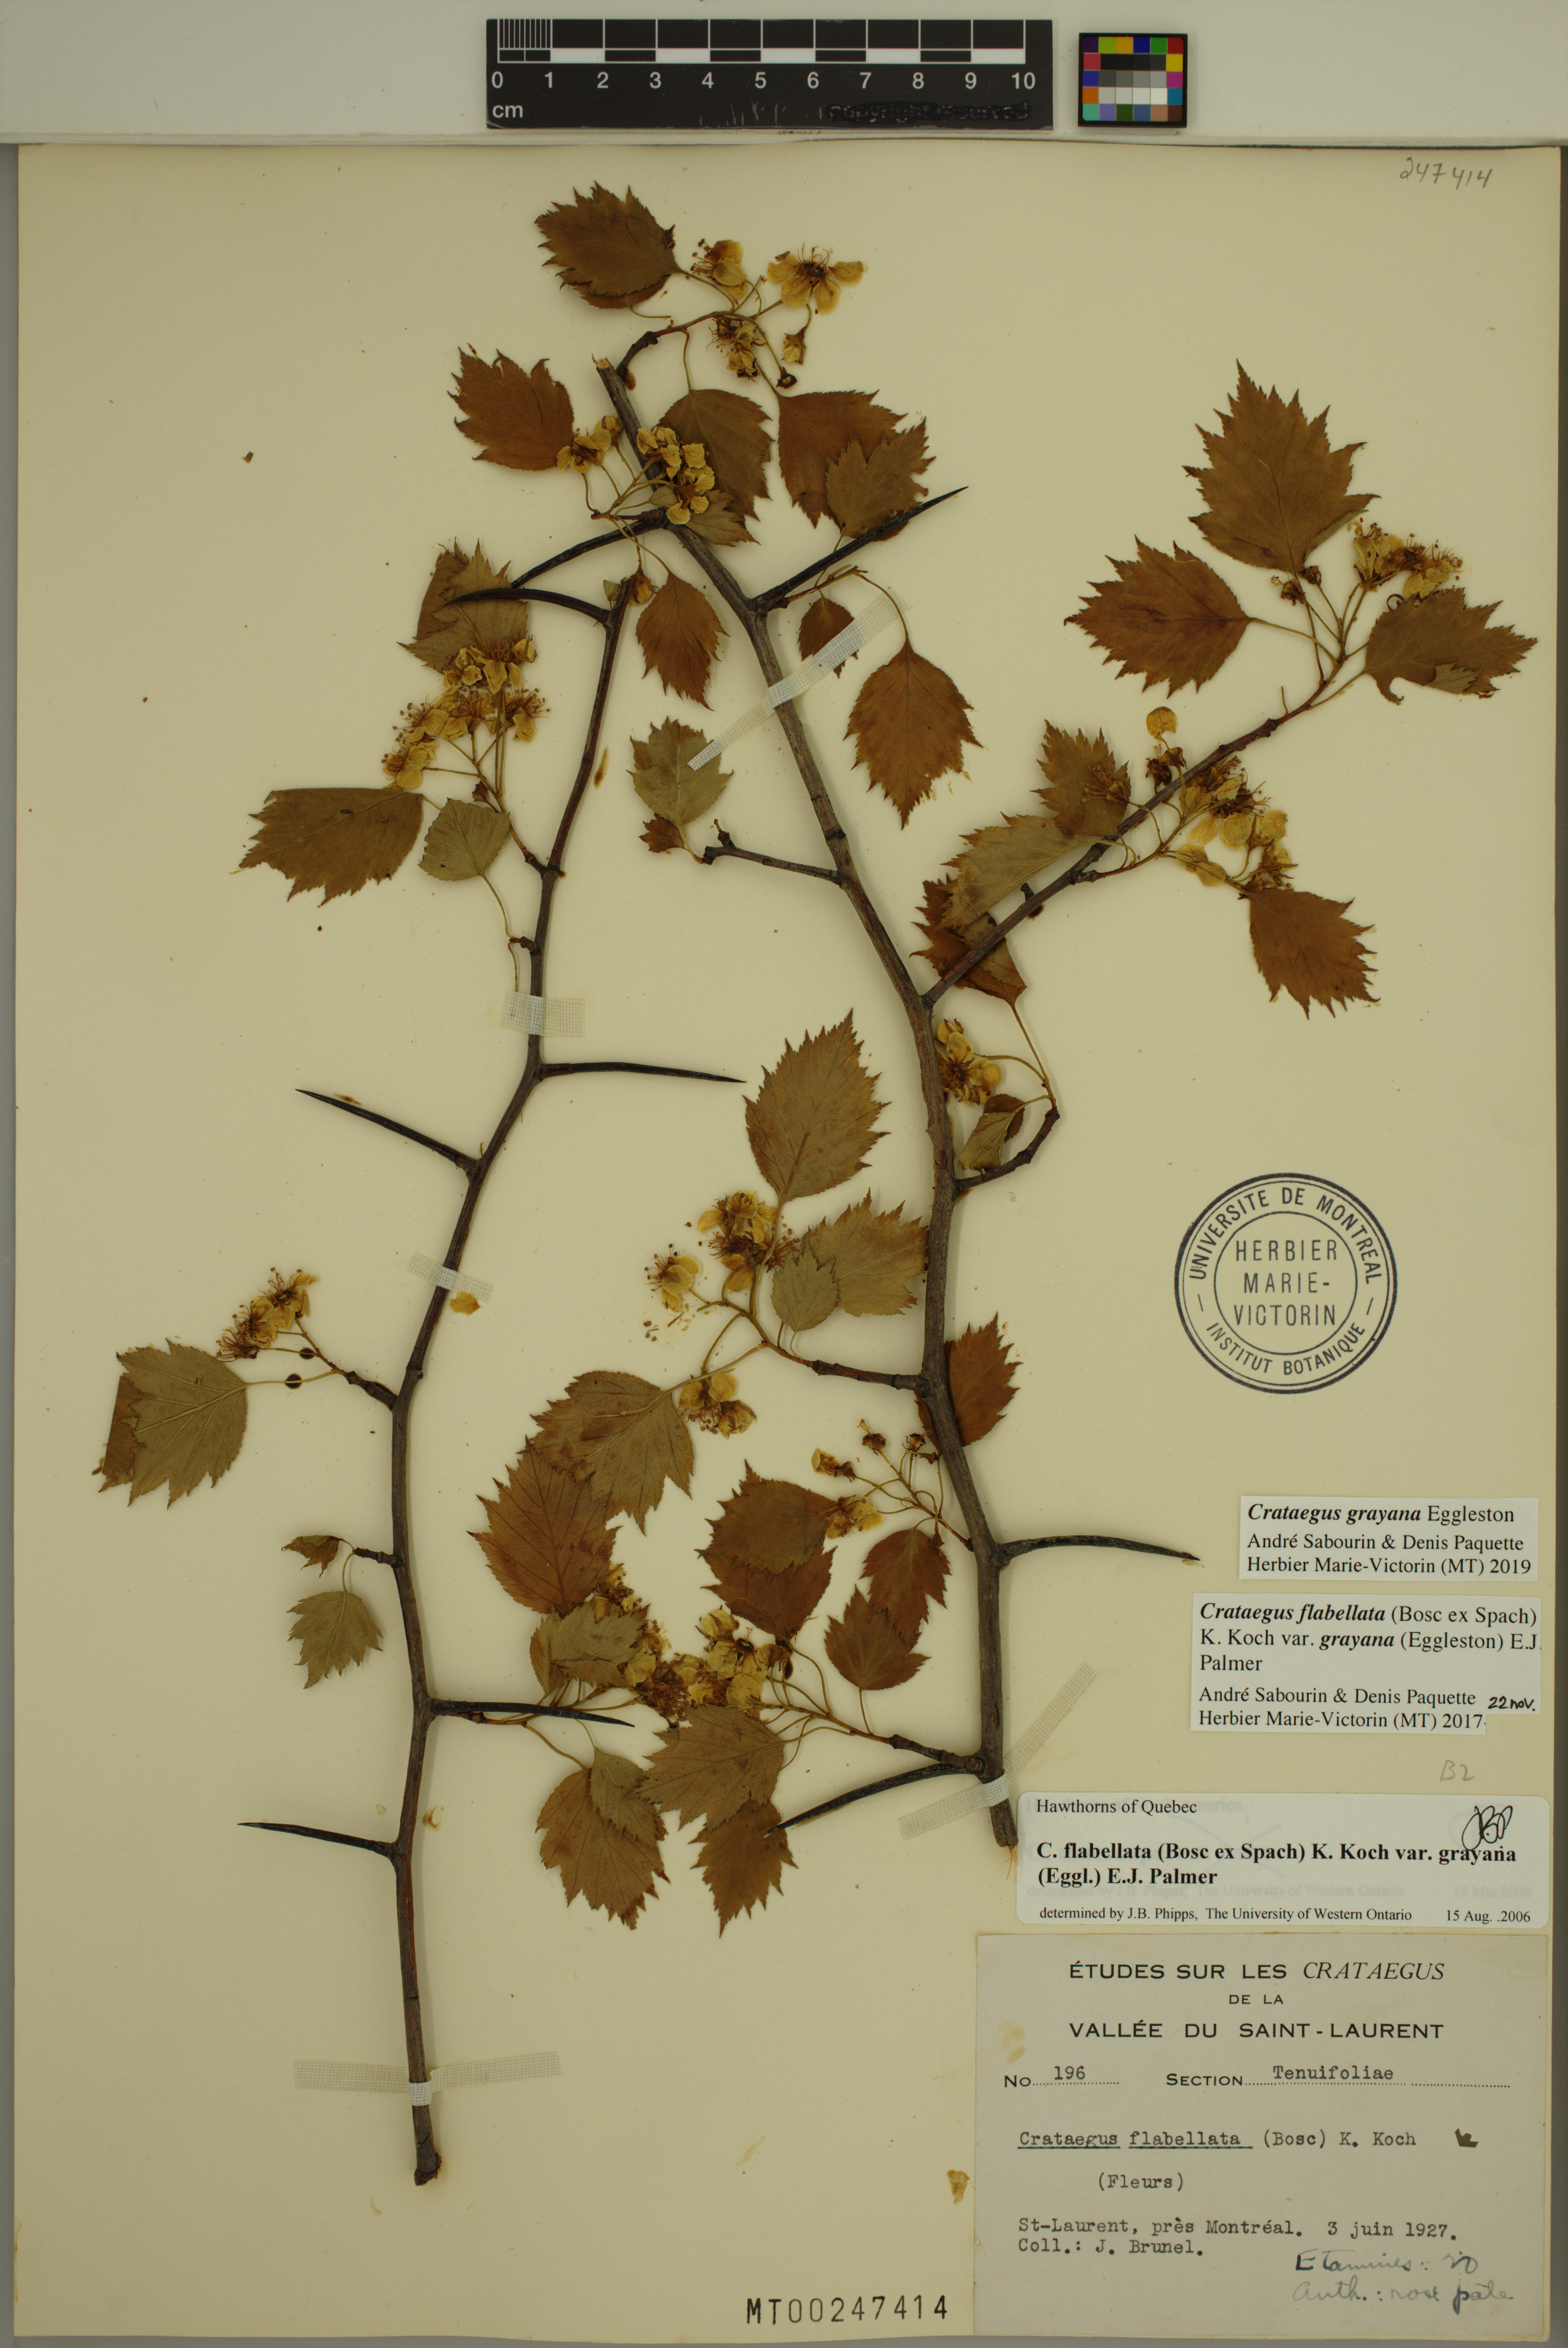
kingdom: Plantae
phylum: Tracheophyta
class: Magnoliopsida
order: Rosales
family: Rosaceae
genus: Crataegus
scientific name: Crataegus schuettei
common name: Schuette's hawthorn
